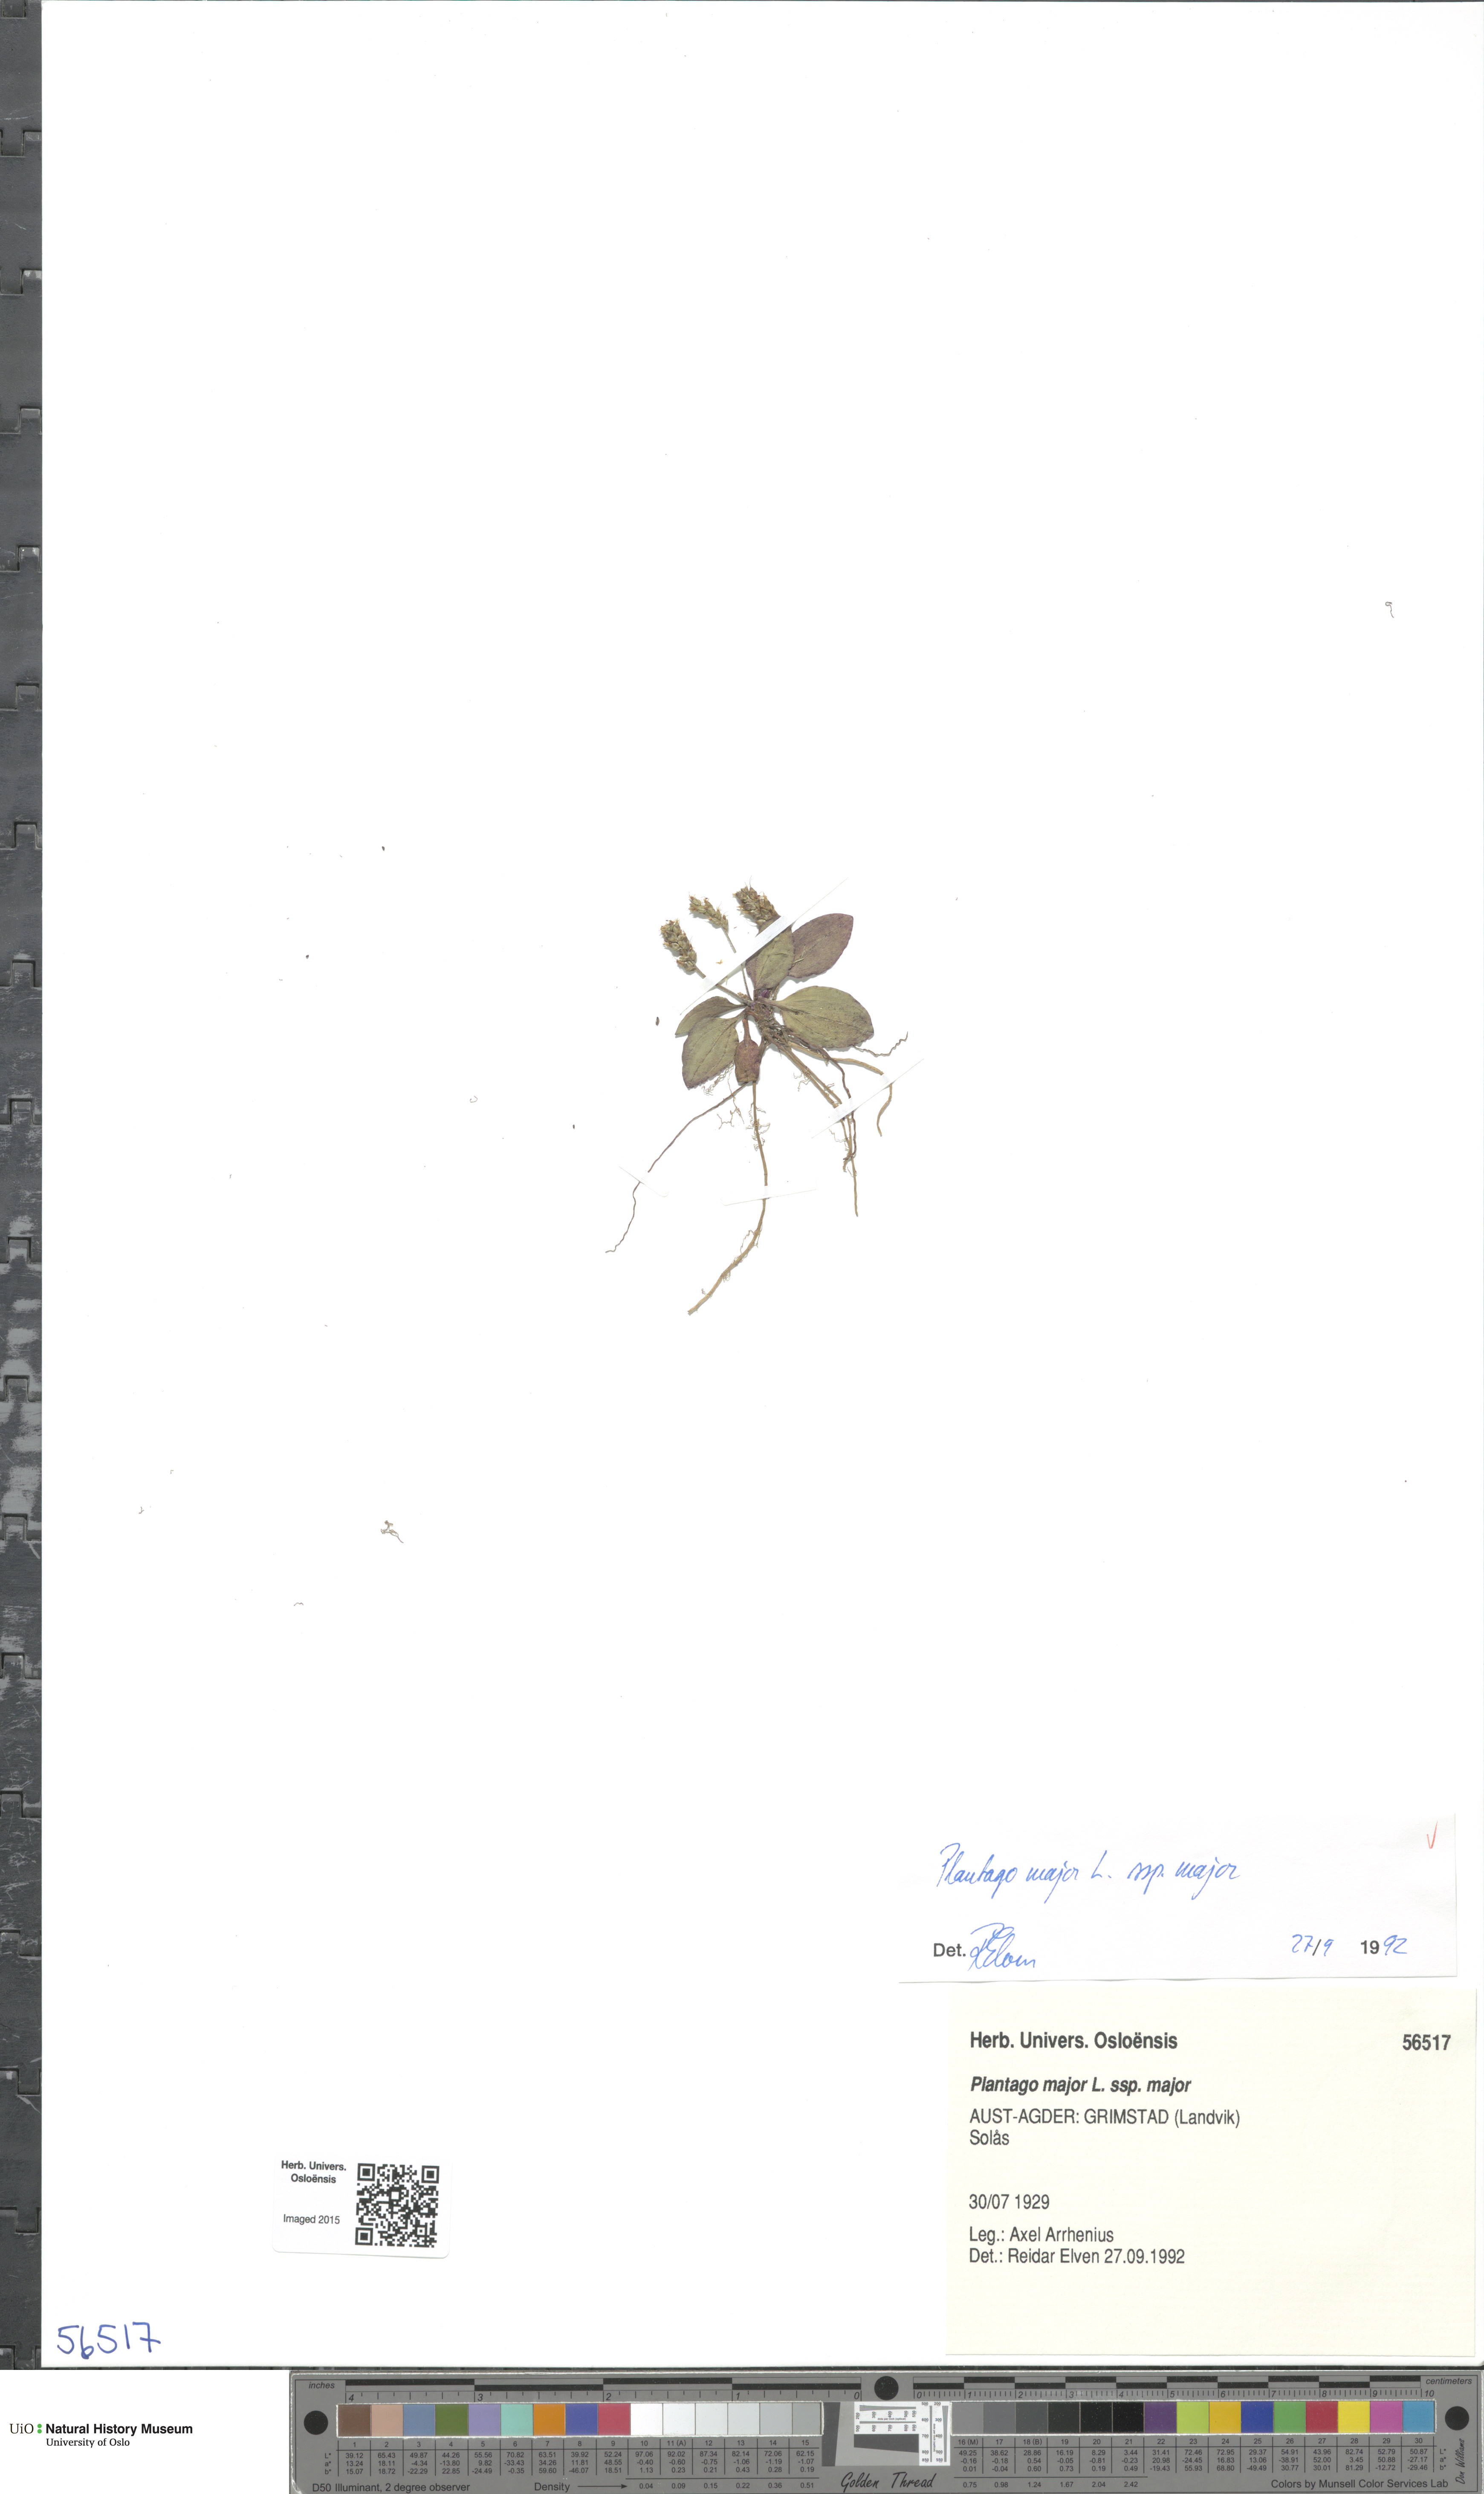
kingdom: Plantae
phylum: Tracheophyta
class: Magnoliopsida
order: Lamiales
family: Plantaginaceae
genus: Plantago
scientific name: Plantago major
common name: Common plantain
